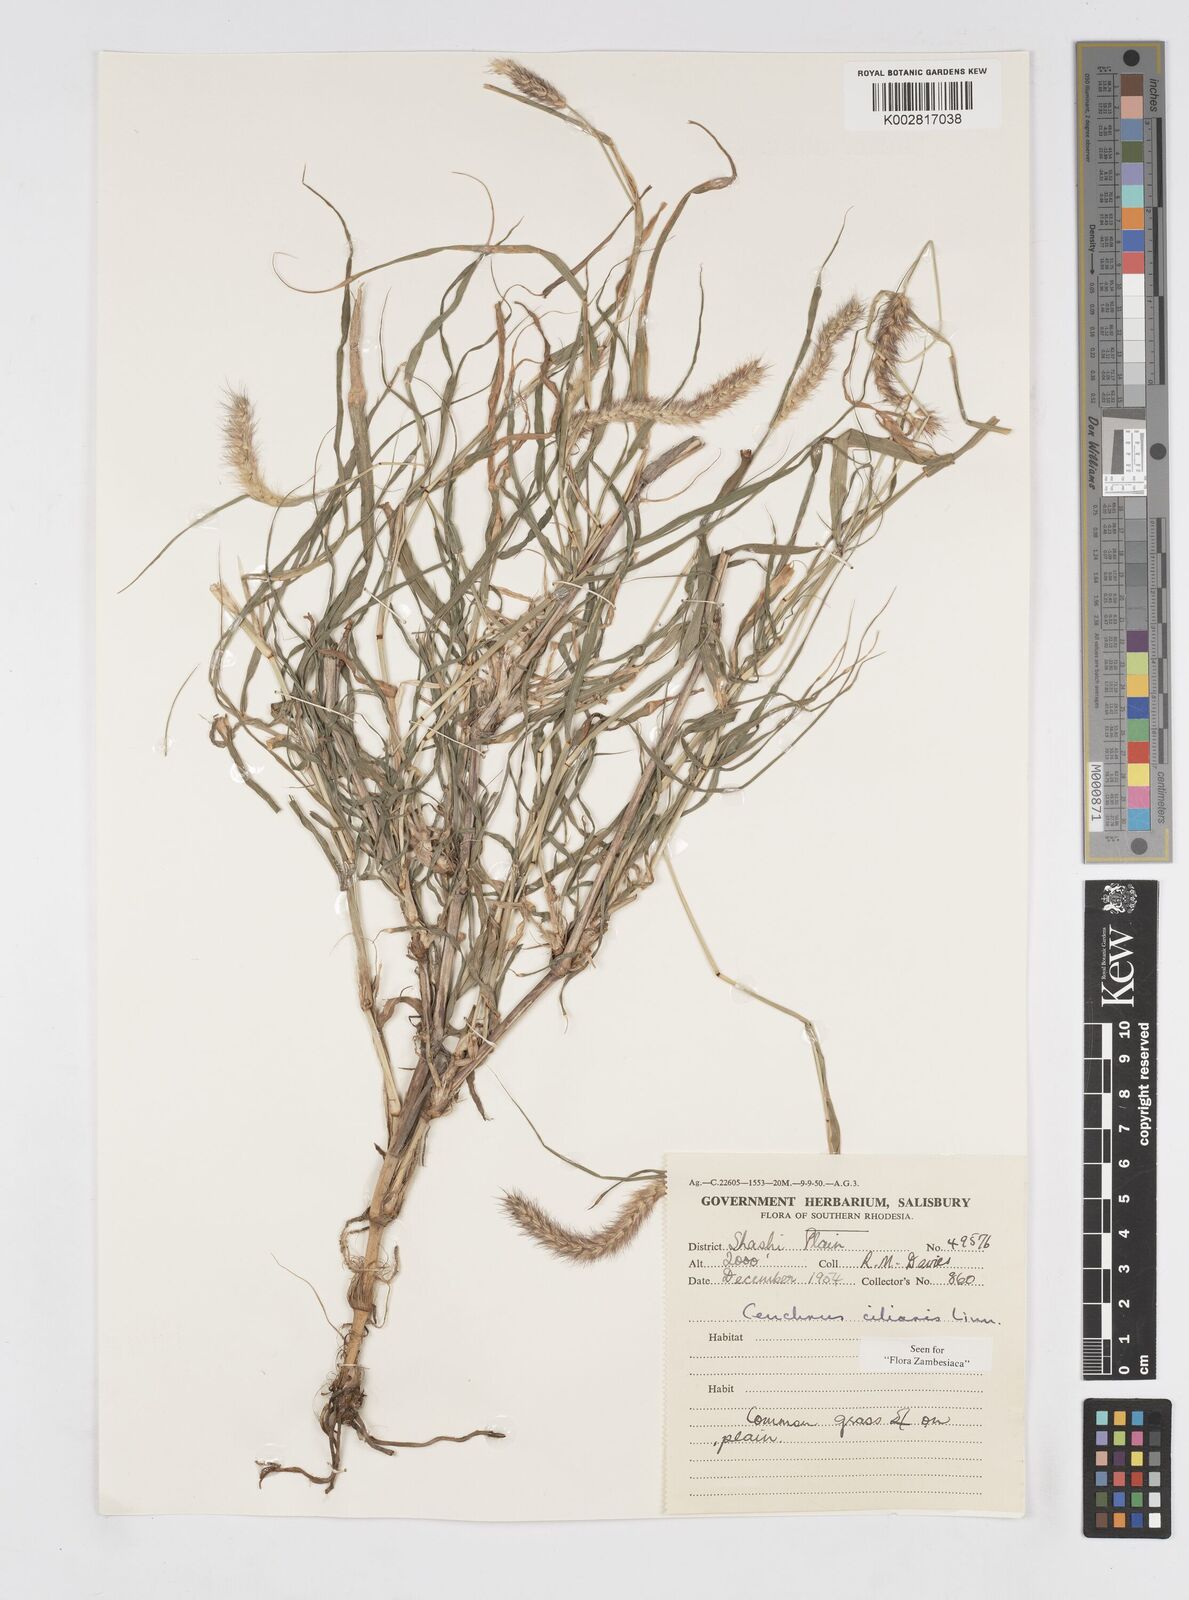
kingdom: Plantae
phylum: Tracheophyta
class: Liliopsida
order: Poales
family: Poaceae
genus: Cenchrus
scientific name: Cenchrus ciliaris
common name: Buffelgrass
